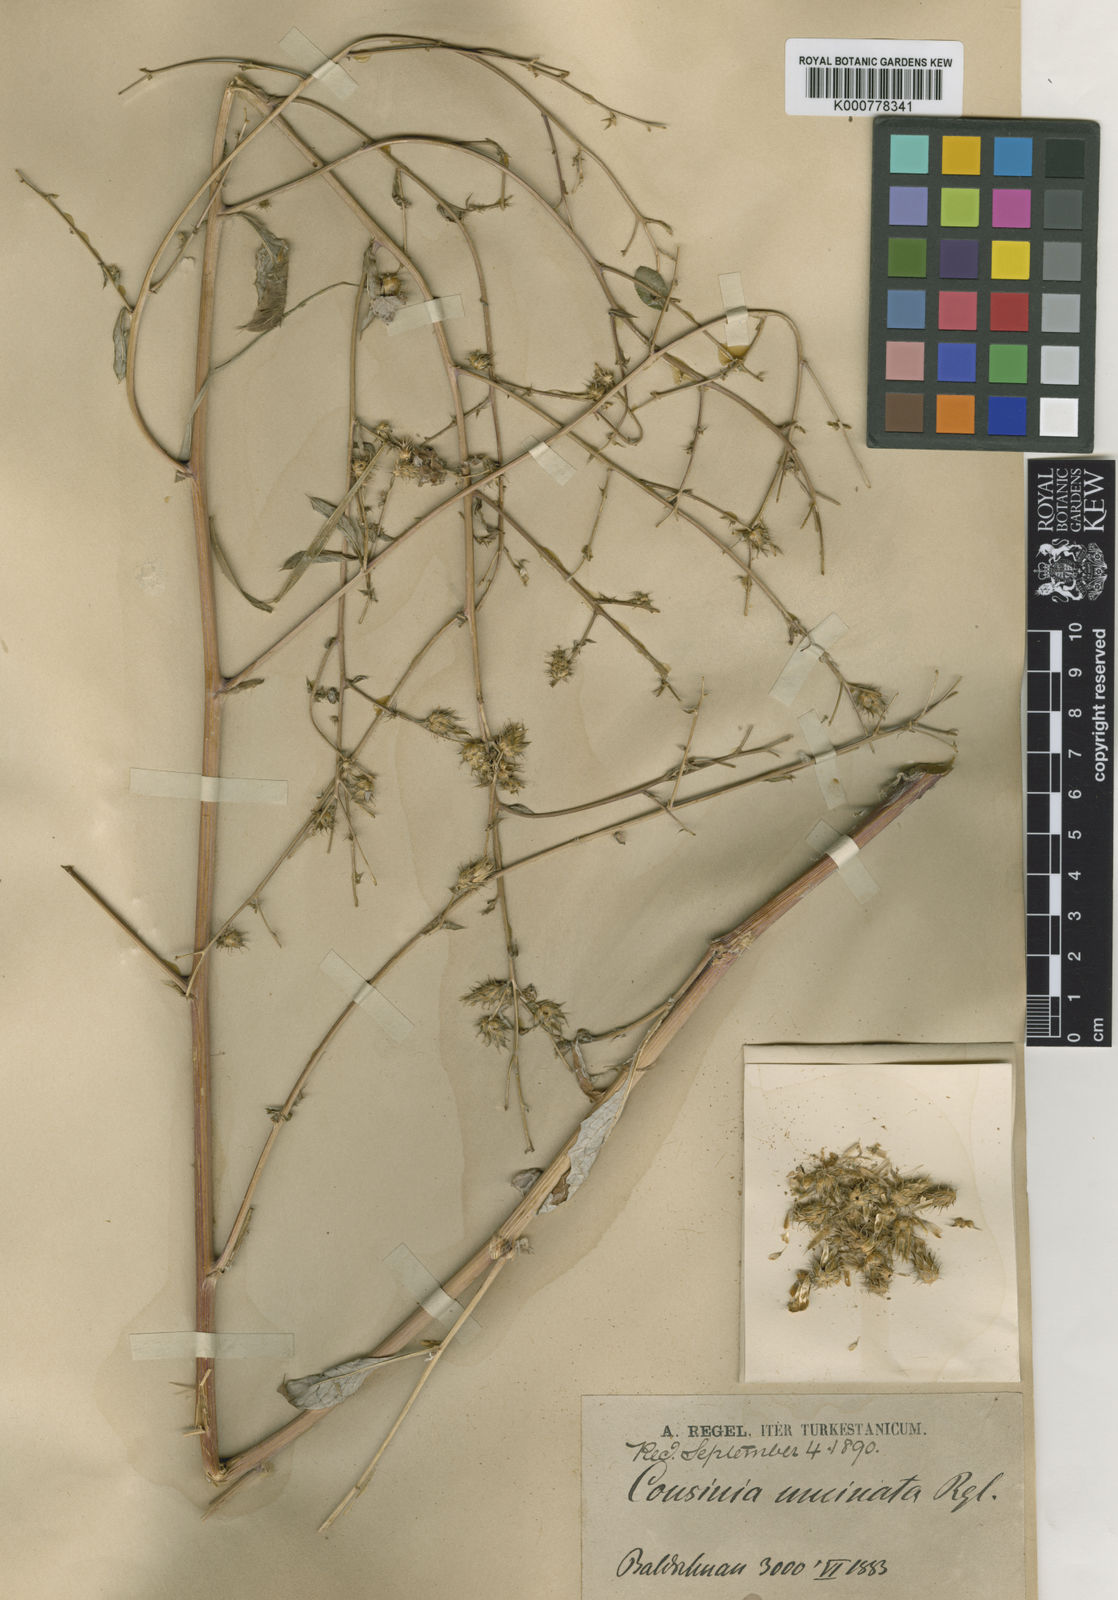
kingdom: Plantae
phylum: Tracheophyta
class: Magnoliopsida
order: Asterales
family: Asteraceae
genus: Arctium
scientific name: Arctium umbrosum
